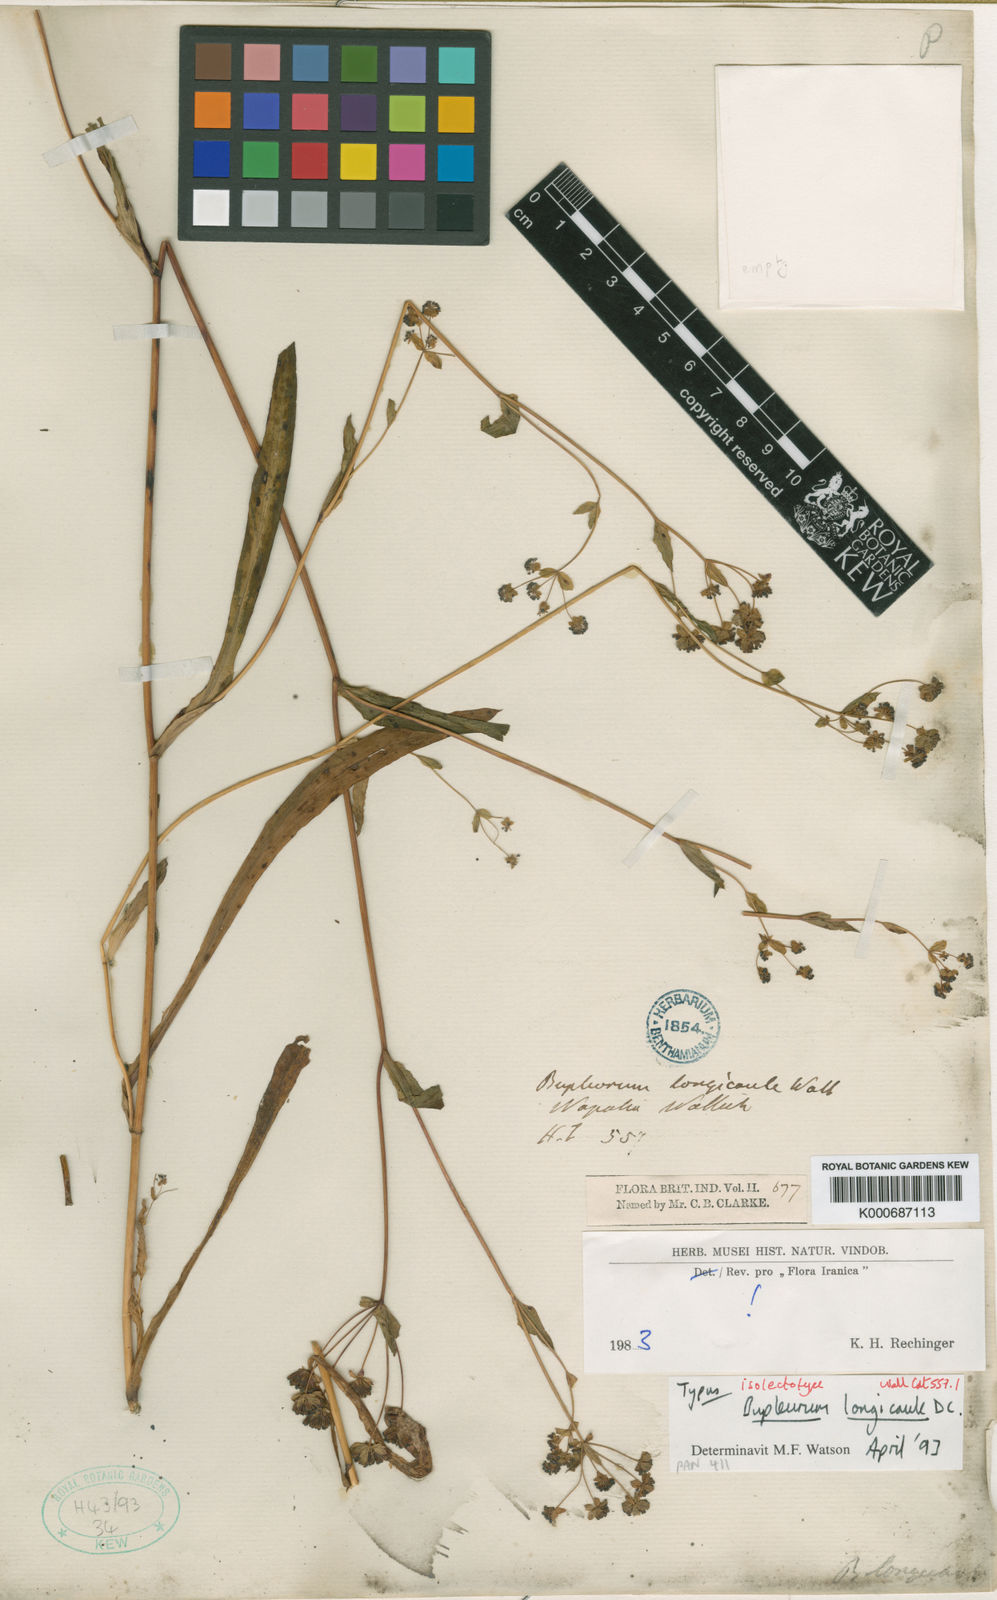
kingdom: Plantae
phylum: Tracheophyta
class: Magnoliopsida
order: Apiales
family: Apiaceae
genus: Bupleurum
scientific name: Bupleurum longicaule
